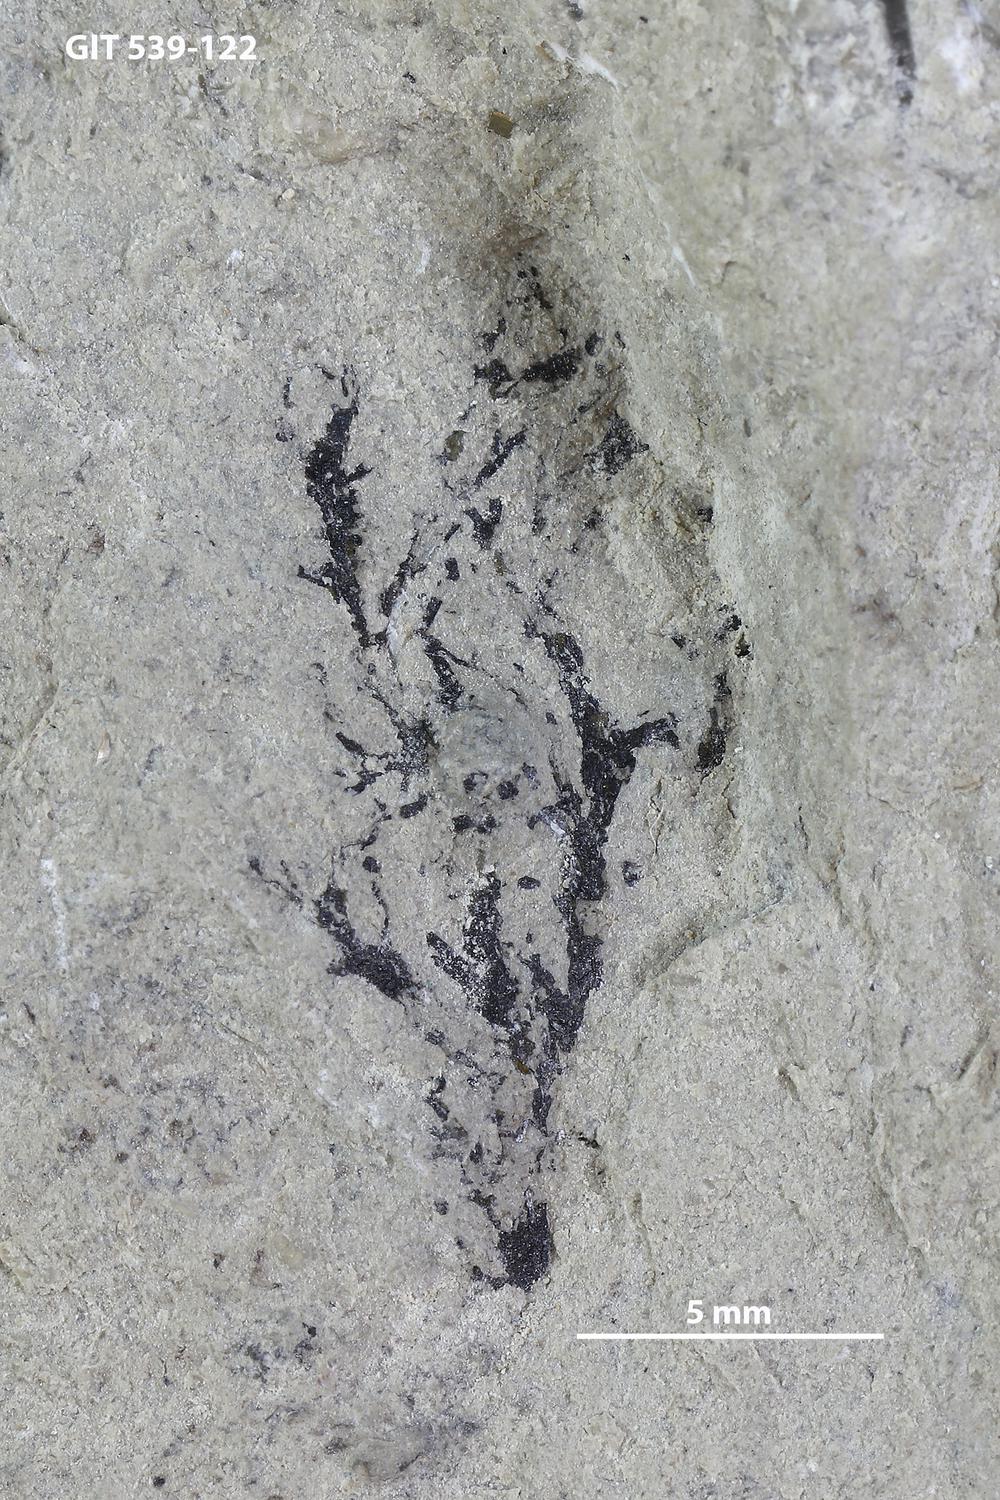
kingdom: Animalia
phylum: Hemichordata
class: Pterobranchia
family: Dendrograptidae
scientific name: Dendrograptidae
